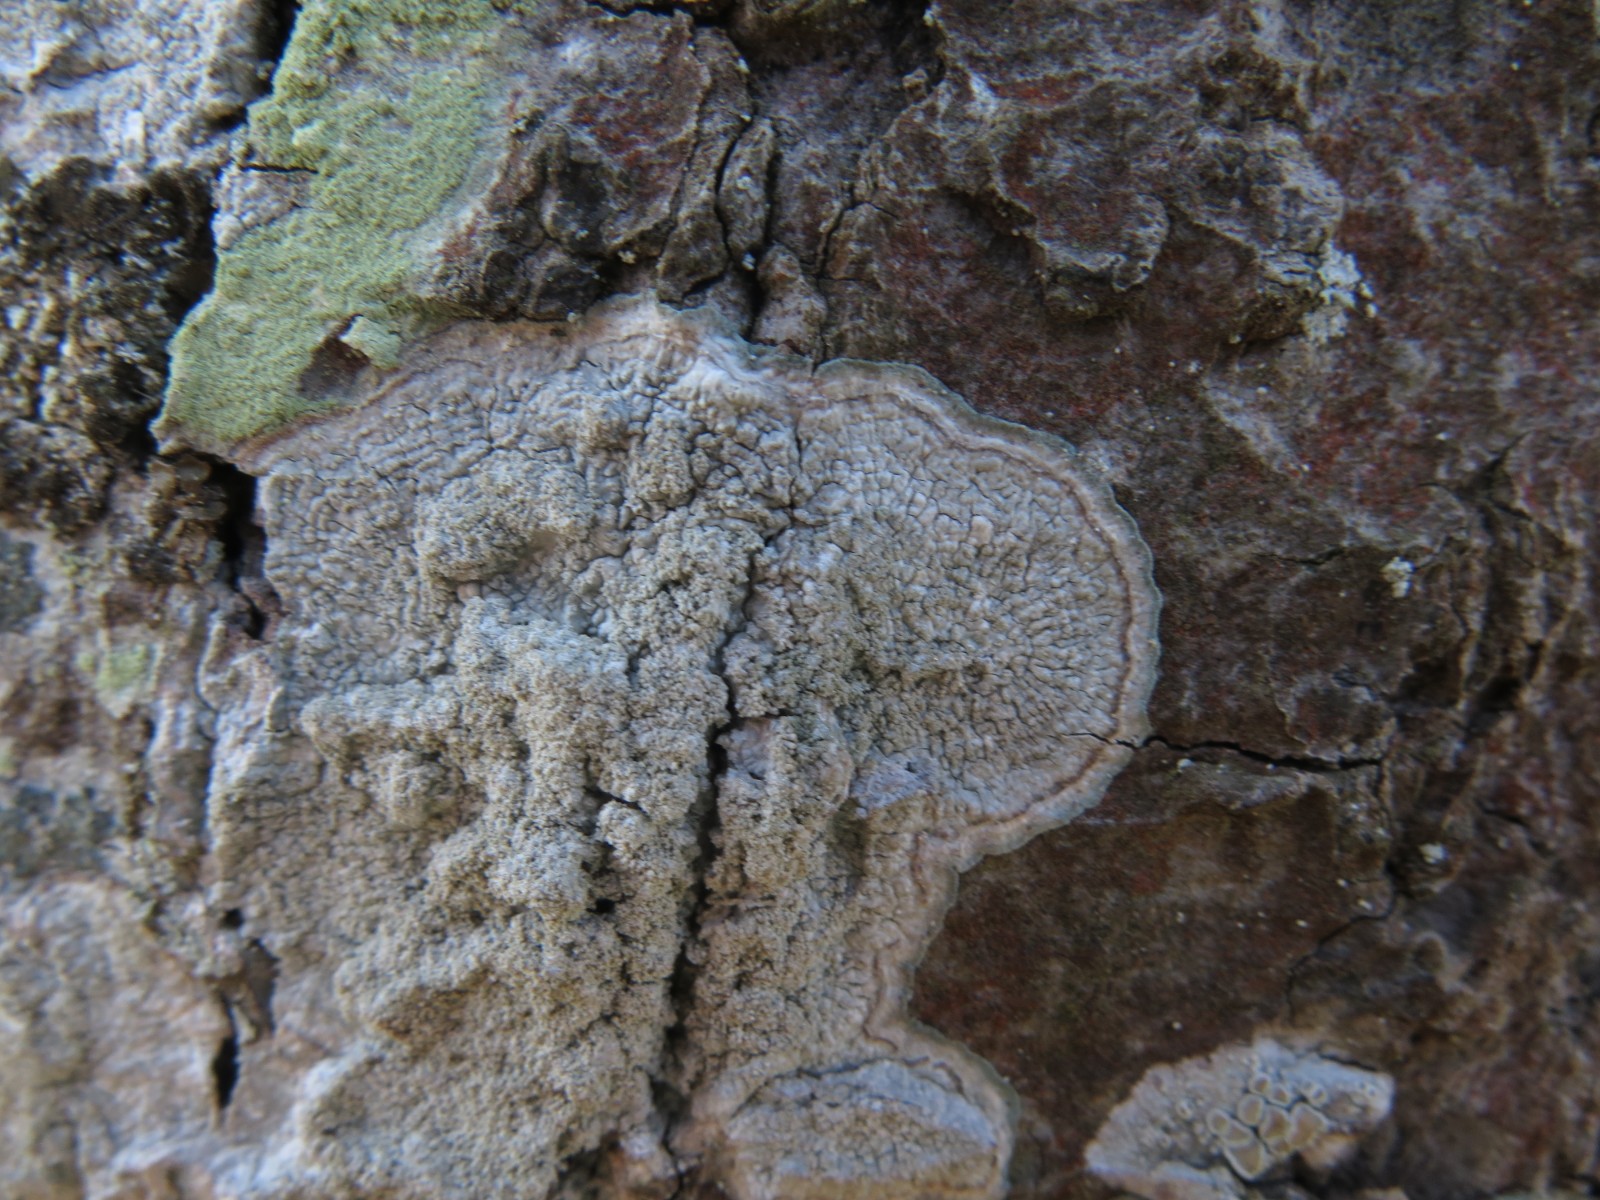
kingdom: Fungi
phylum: Ascomycota
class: Lecanoromycetes
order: Pertusariales
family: Pertusariaceae
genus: Lepra
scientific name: Lepra albescens
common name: hvidmelet prikvortelav
